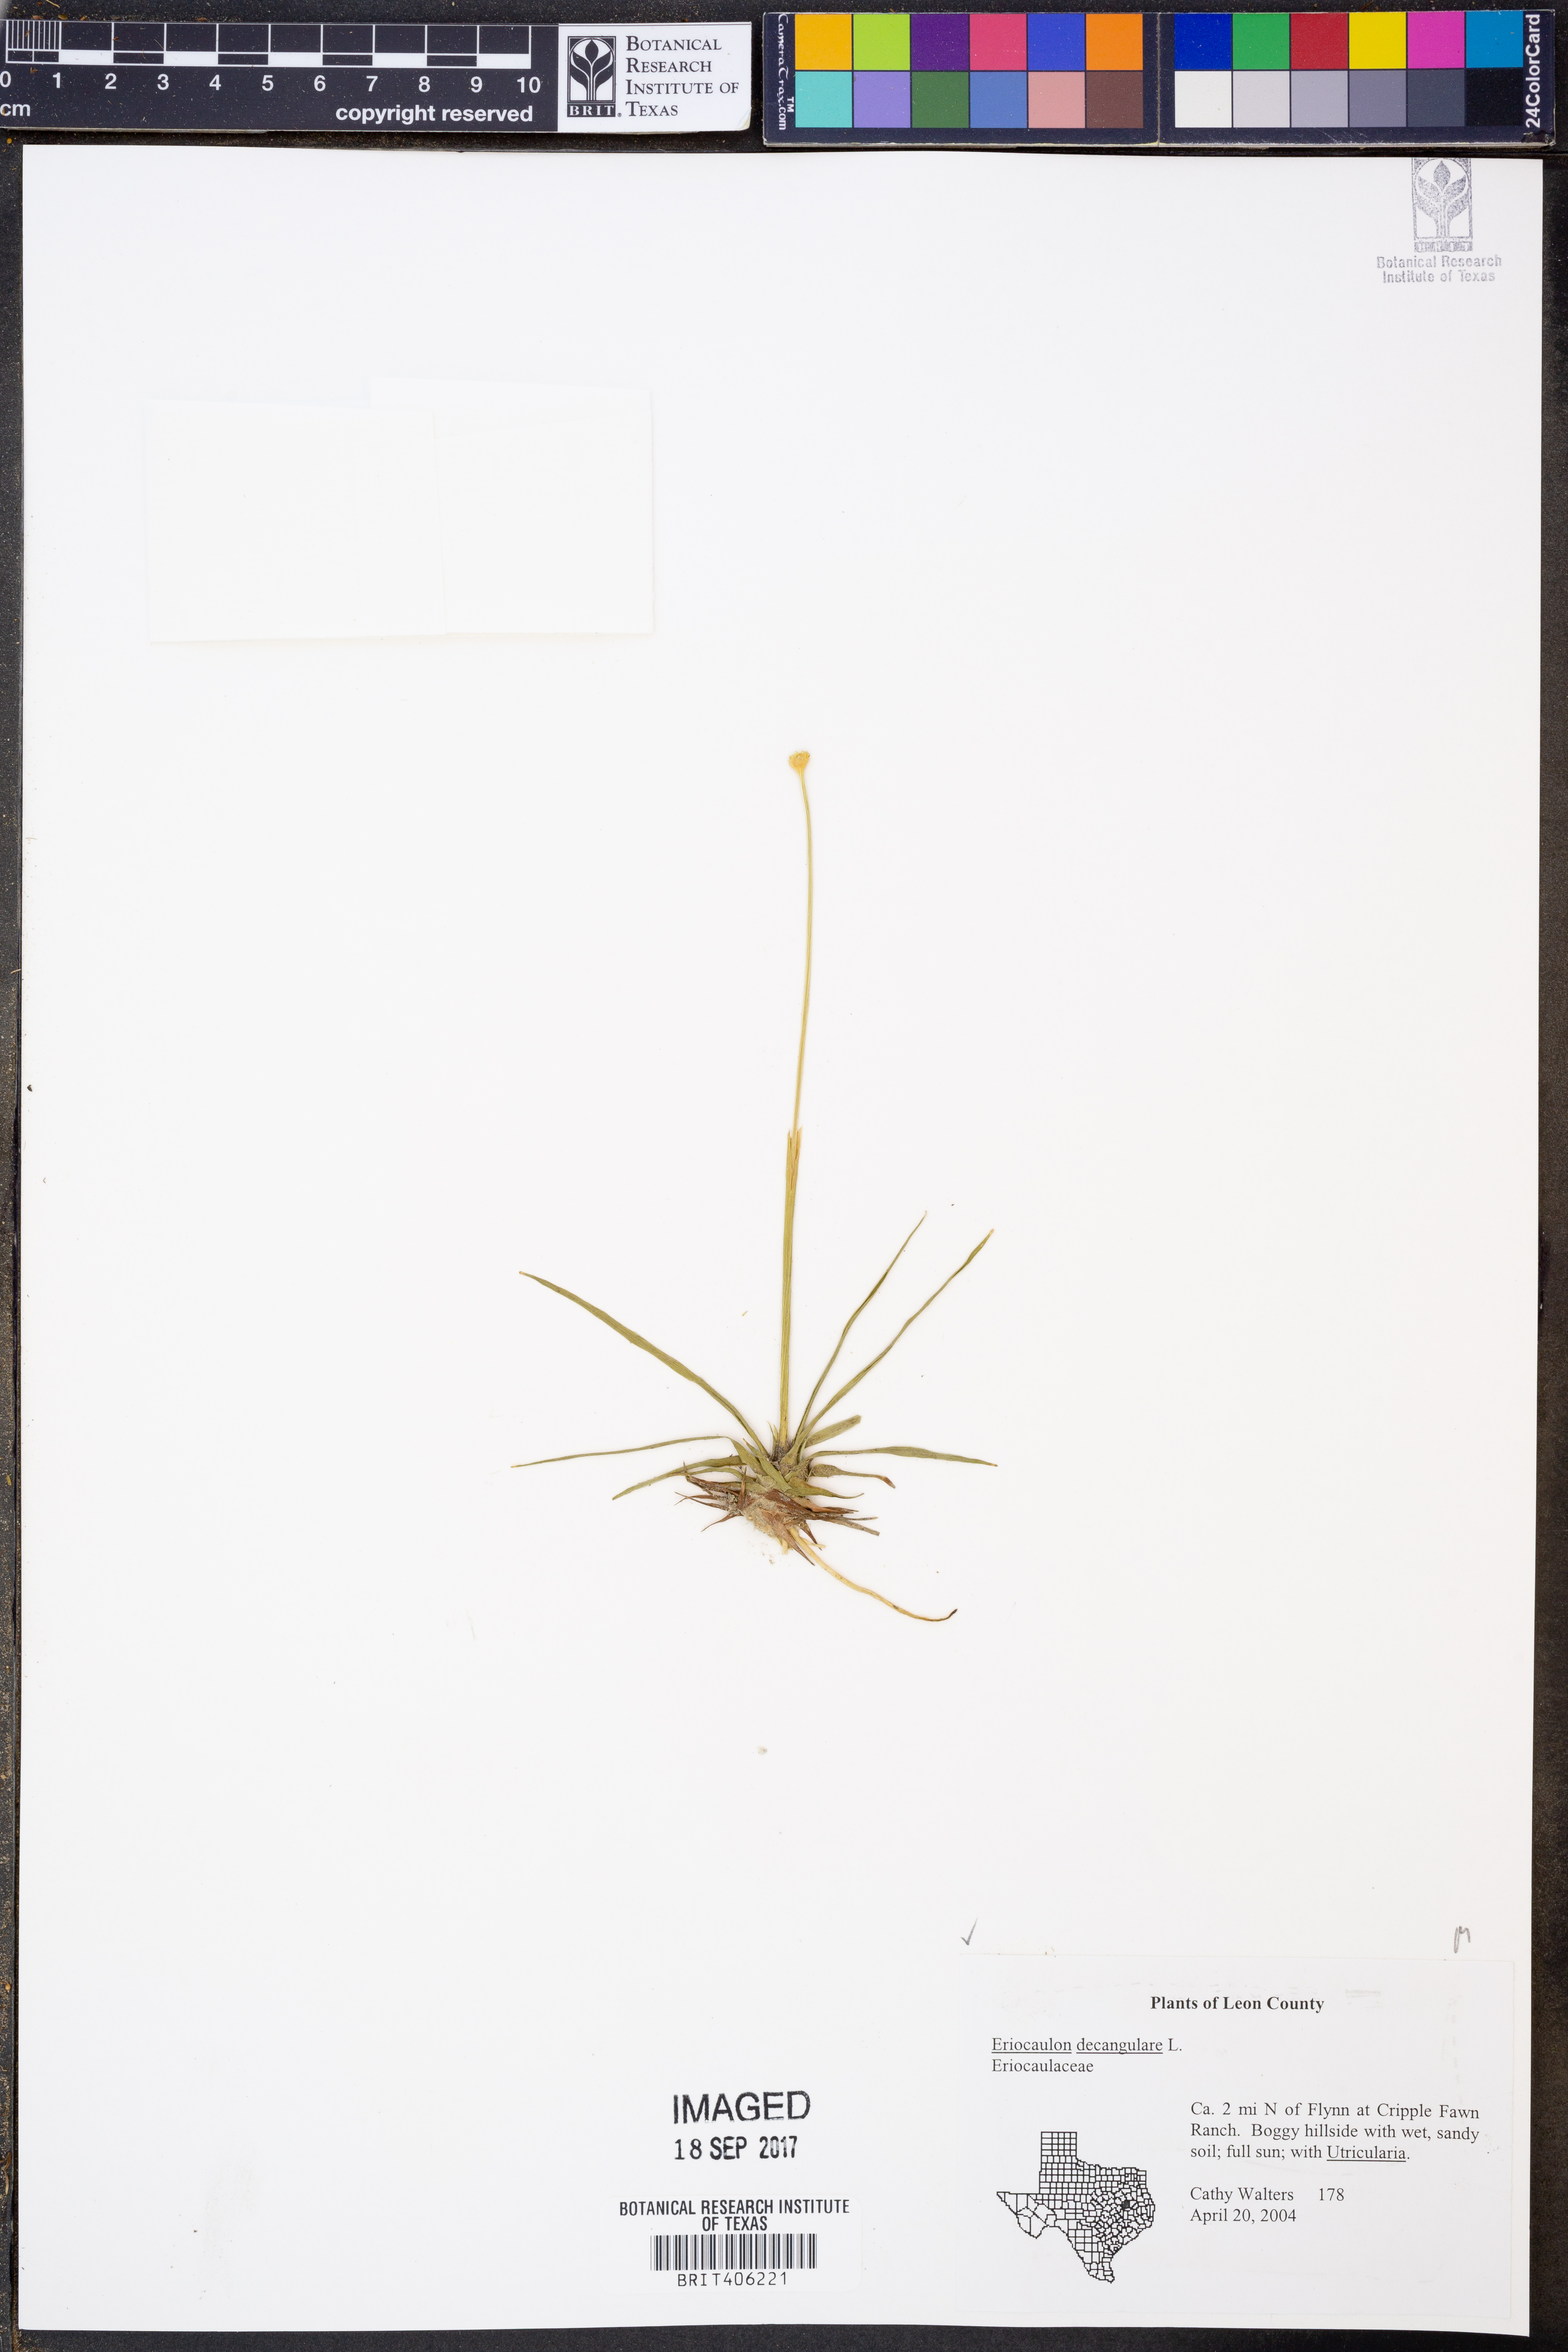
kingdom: Plantae
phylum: Tracheophyta
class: Liliopsida
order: Poales
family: Eriocaulaceae
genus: Eriocaulon
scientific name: Eriocaulon decangulare
